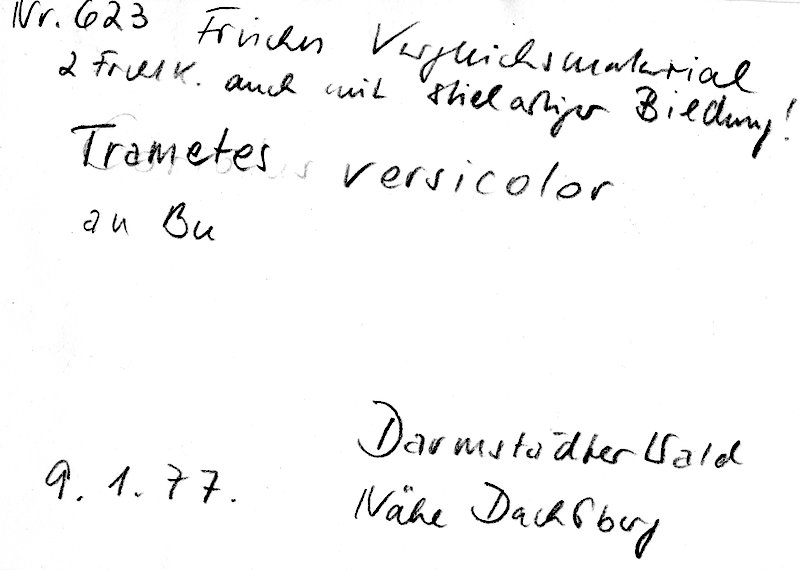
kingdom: Fungi
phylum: Basidiomycota
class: Agaricomycetes
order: Polyporales
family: Polyporaceae
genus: Trametes
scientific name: Trametes versicolor
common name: Turkeytail
